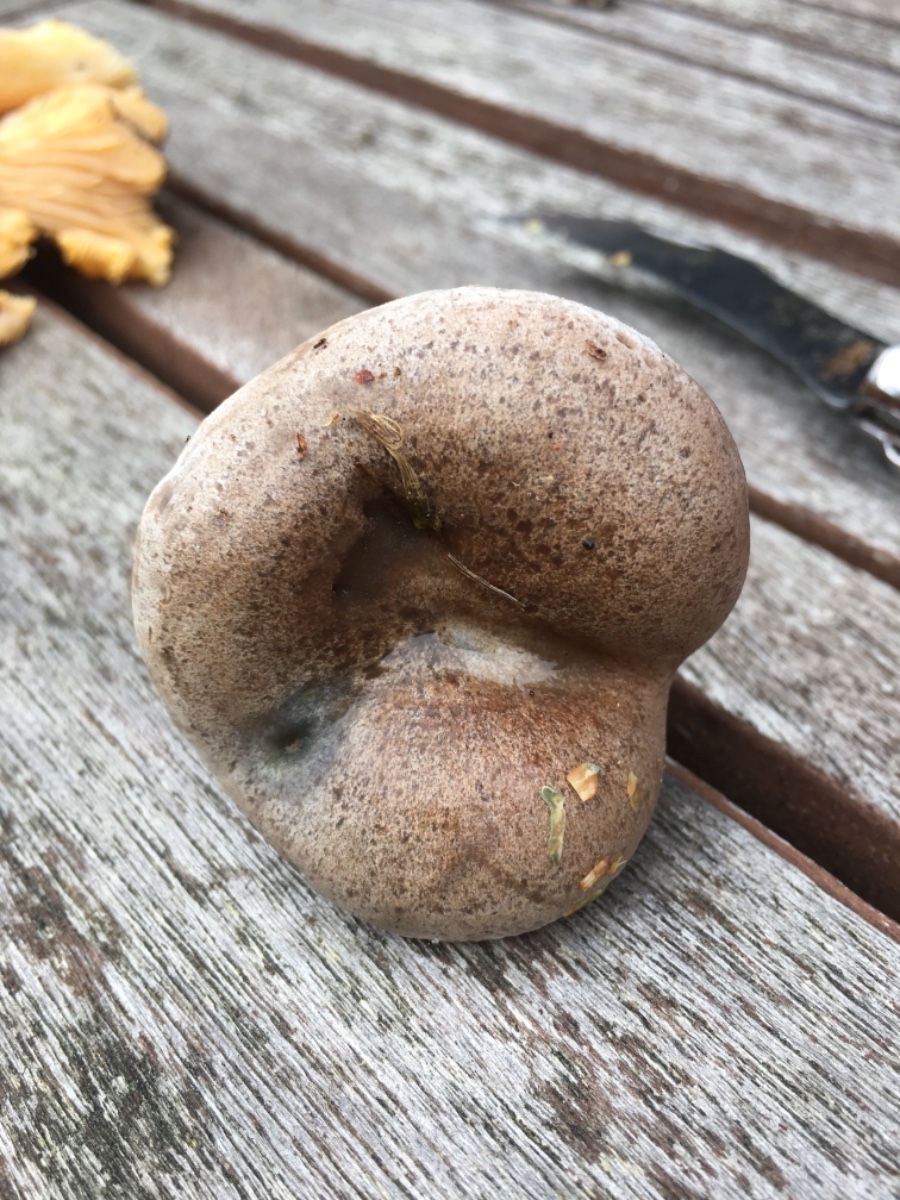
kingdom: Fungi
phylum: Basidiomycota
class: Agaricomycetes
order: Russulales
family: Russulaceae
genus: Lactarius
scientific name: Lactarius quieticolor
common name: tvefarvet mælkehat
